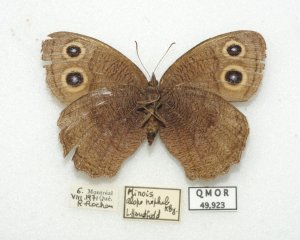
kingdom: Animalia
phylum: Arthropoda
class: Insecta
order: Lepidoptera
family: Nymphalidae
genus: Cercyonis
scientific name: Cercyonis pegala
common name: Common Wood-Nymph
